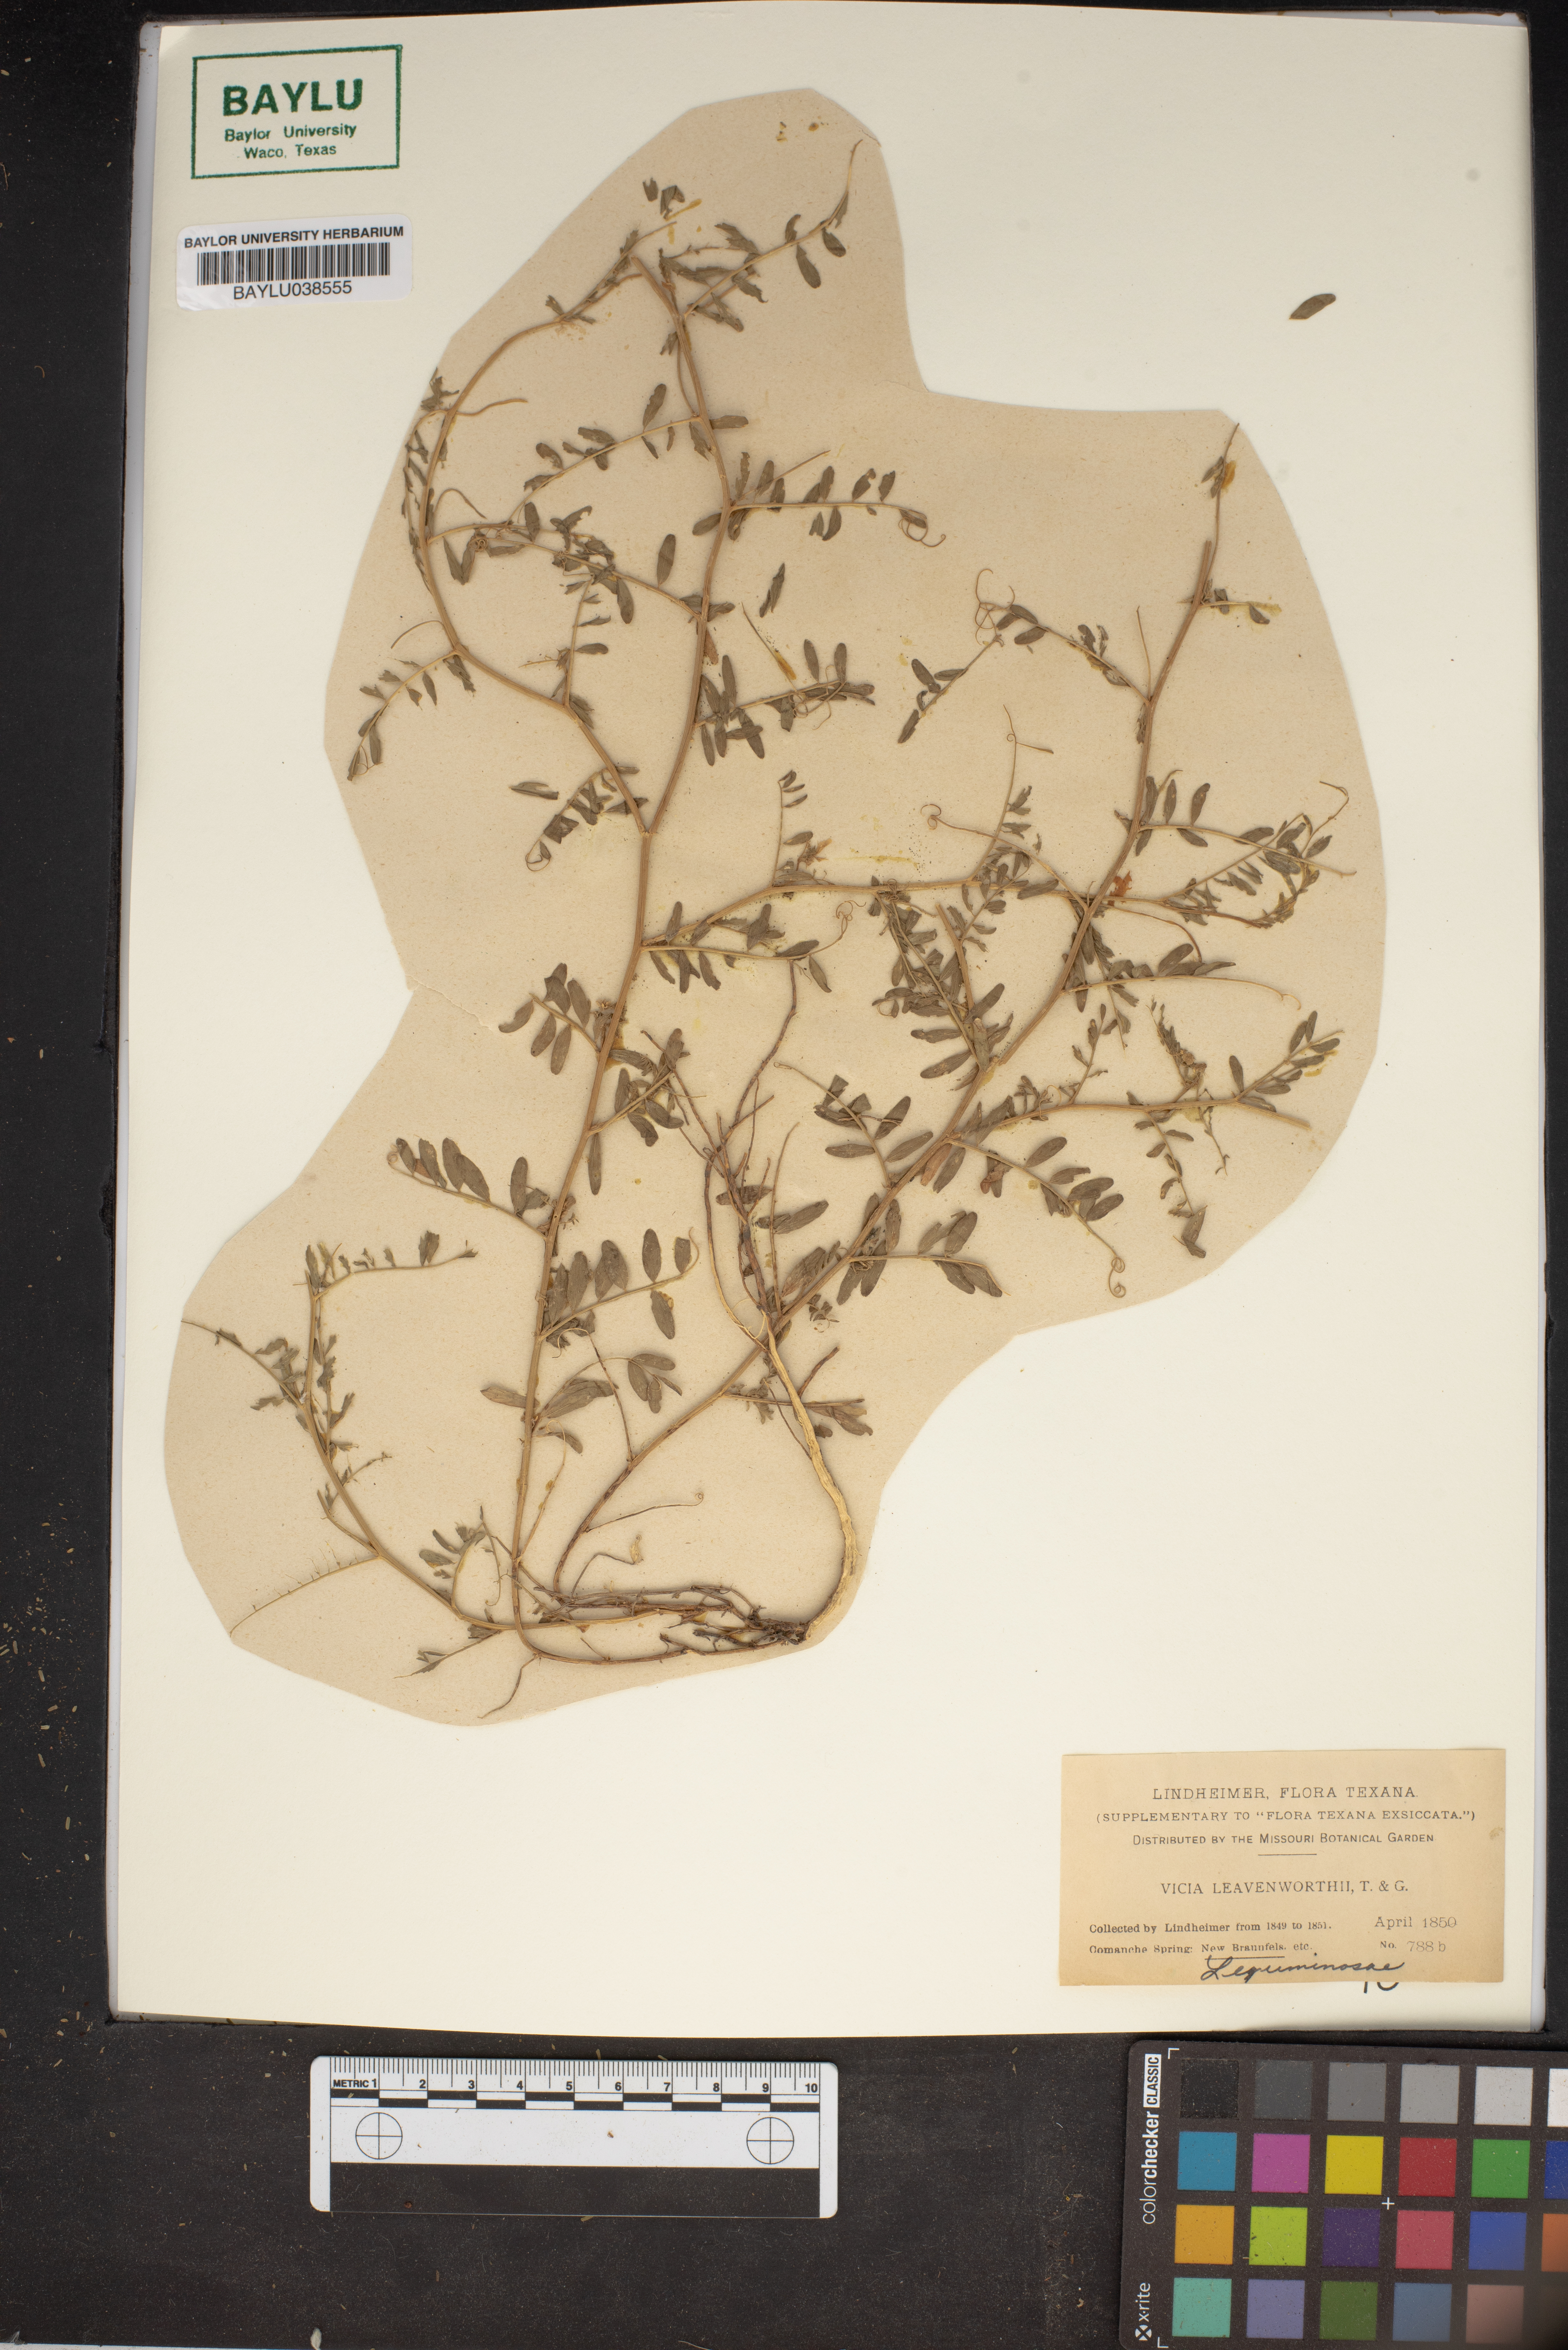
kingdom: Plantae
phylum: Tracheophyta
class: Magnoliopsida
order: Fabales
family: Fabaceae
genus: Vicia
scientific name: Vicia ludoviciana
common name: Louisiana vetch
